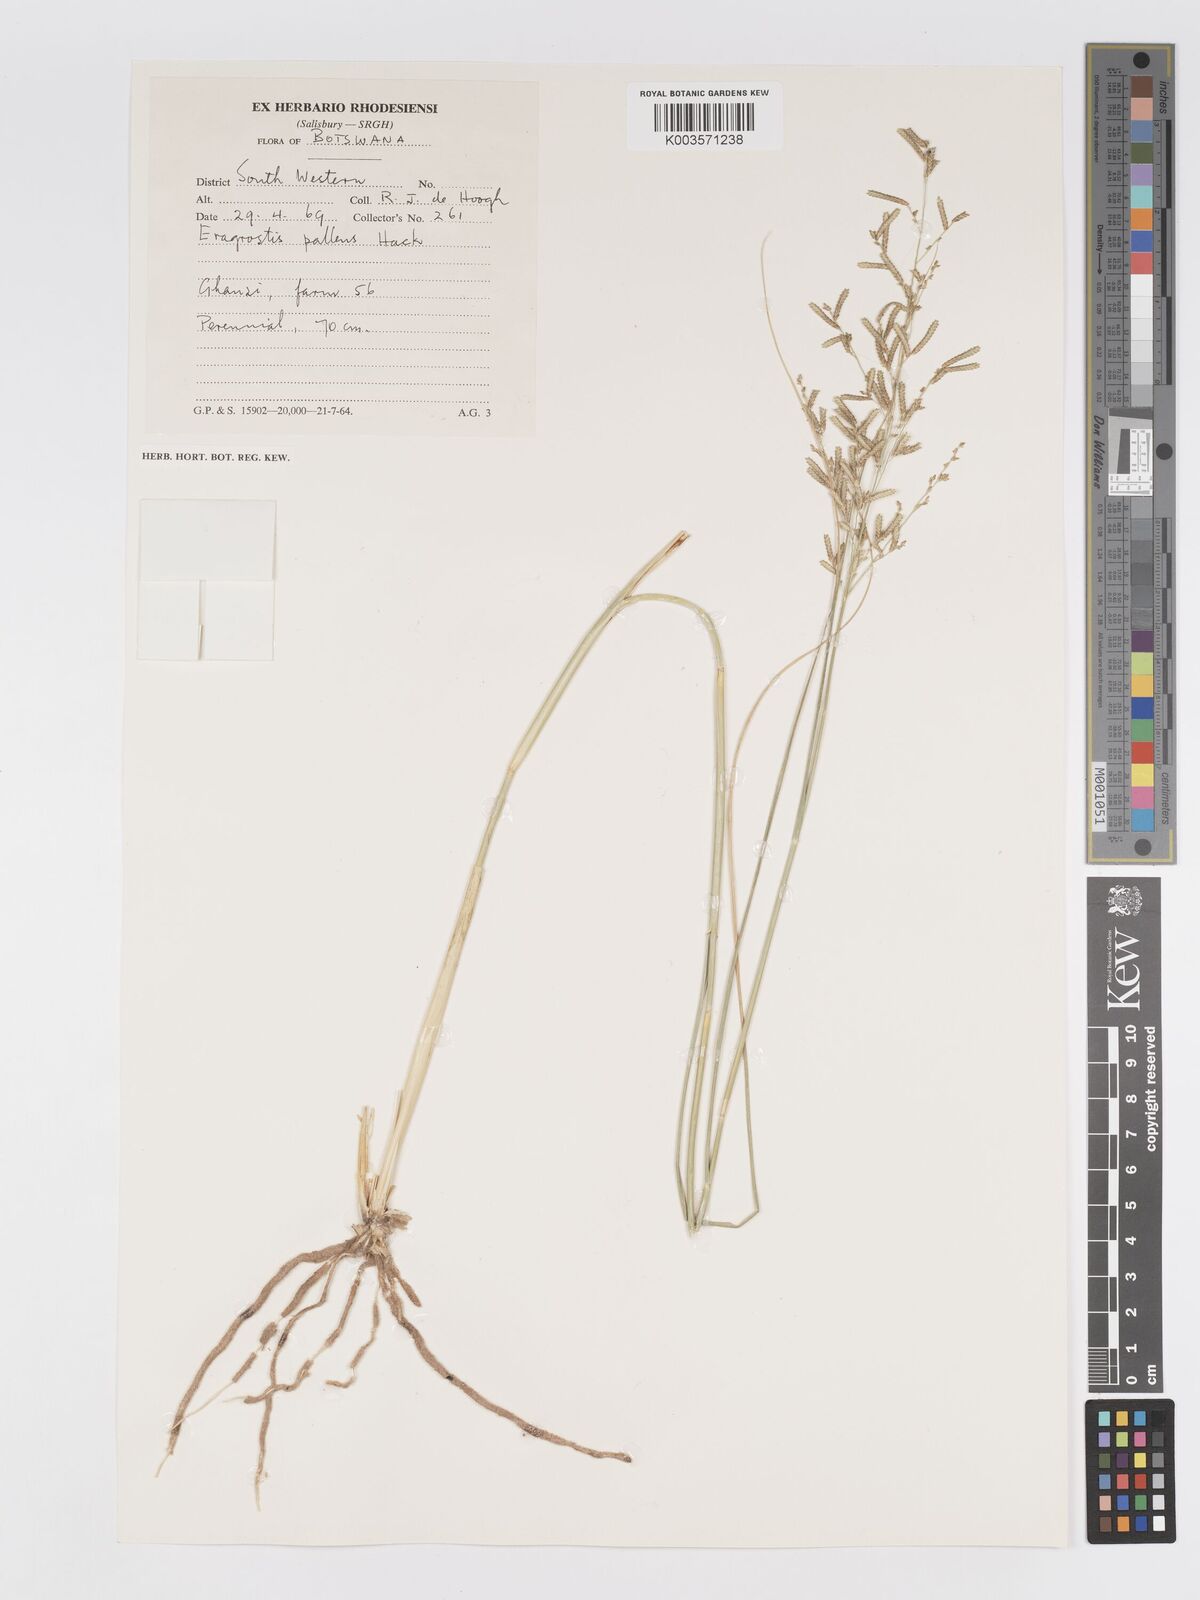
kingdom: Plantae
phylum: Tracheophyta
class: Liliopsida
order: Poales
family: Poaceae
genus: Eragrostis
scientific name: Eragrostis pallens
